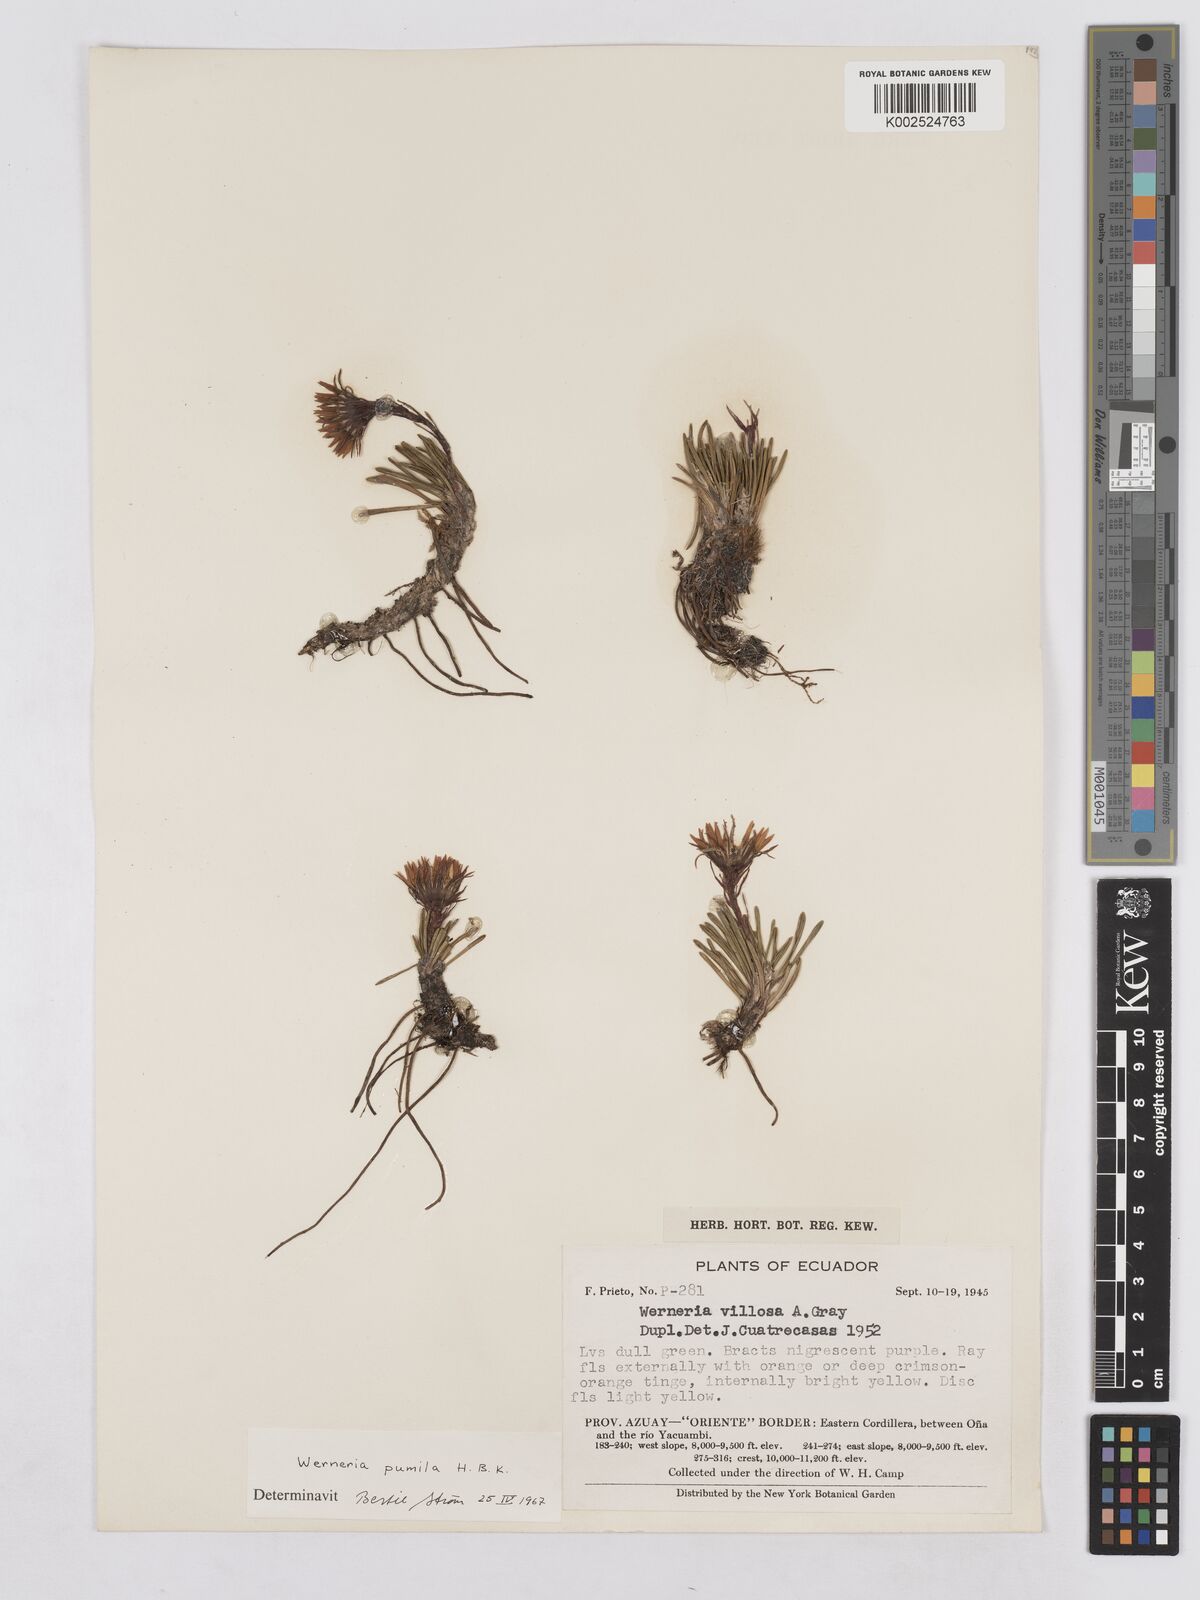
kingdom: Plantae
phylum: Tracheophyta
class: Magnoliopsida
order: Asterales
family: Asteraceae
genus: Rockhausenia
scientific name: Rockhausenia pumila
